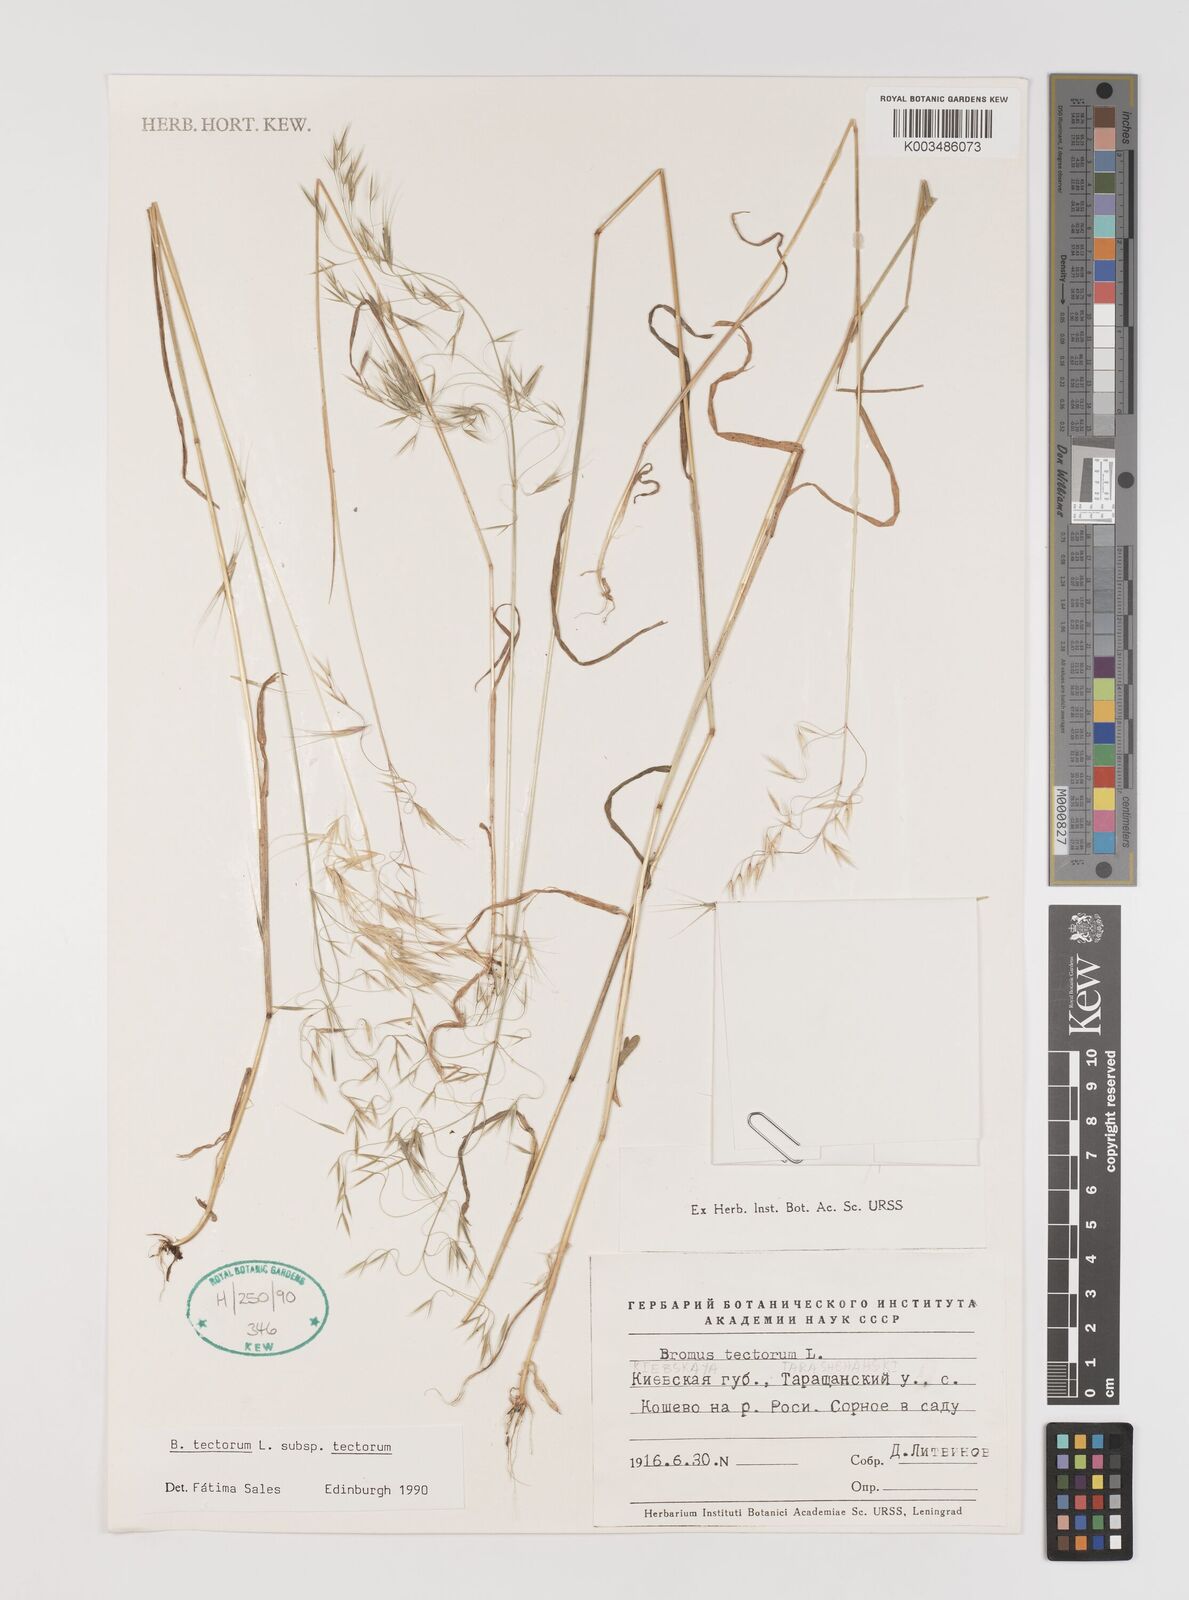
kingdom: Plantae
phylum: Tracheophyta
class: Liliopsida
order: Poales
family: Poaceae
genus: Bromus
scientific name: Bromus tectorum
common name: Cheatgrass
